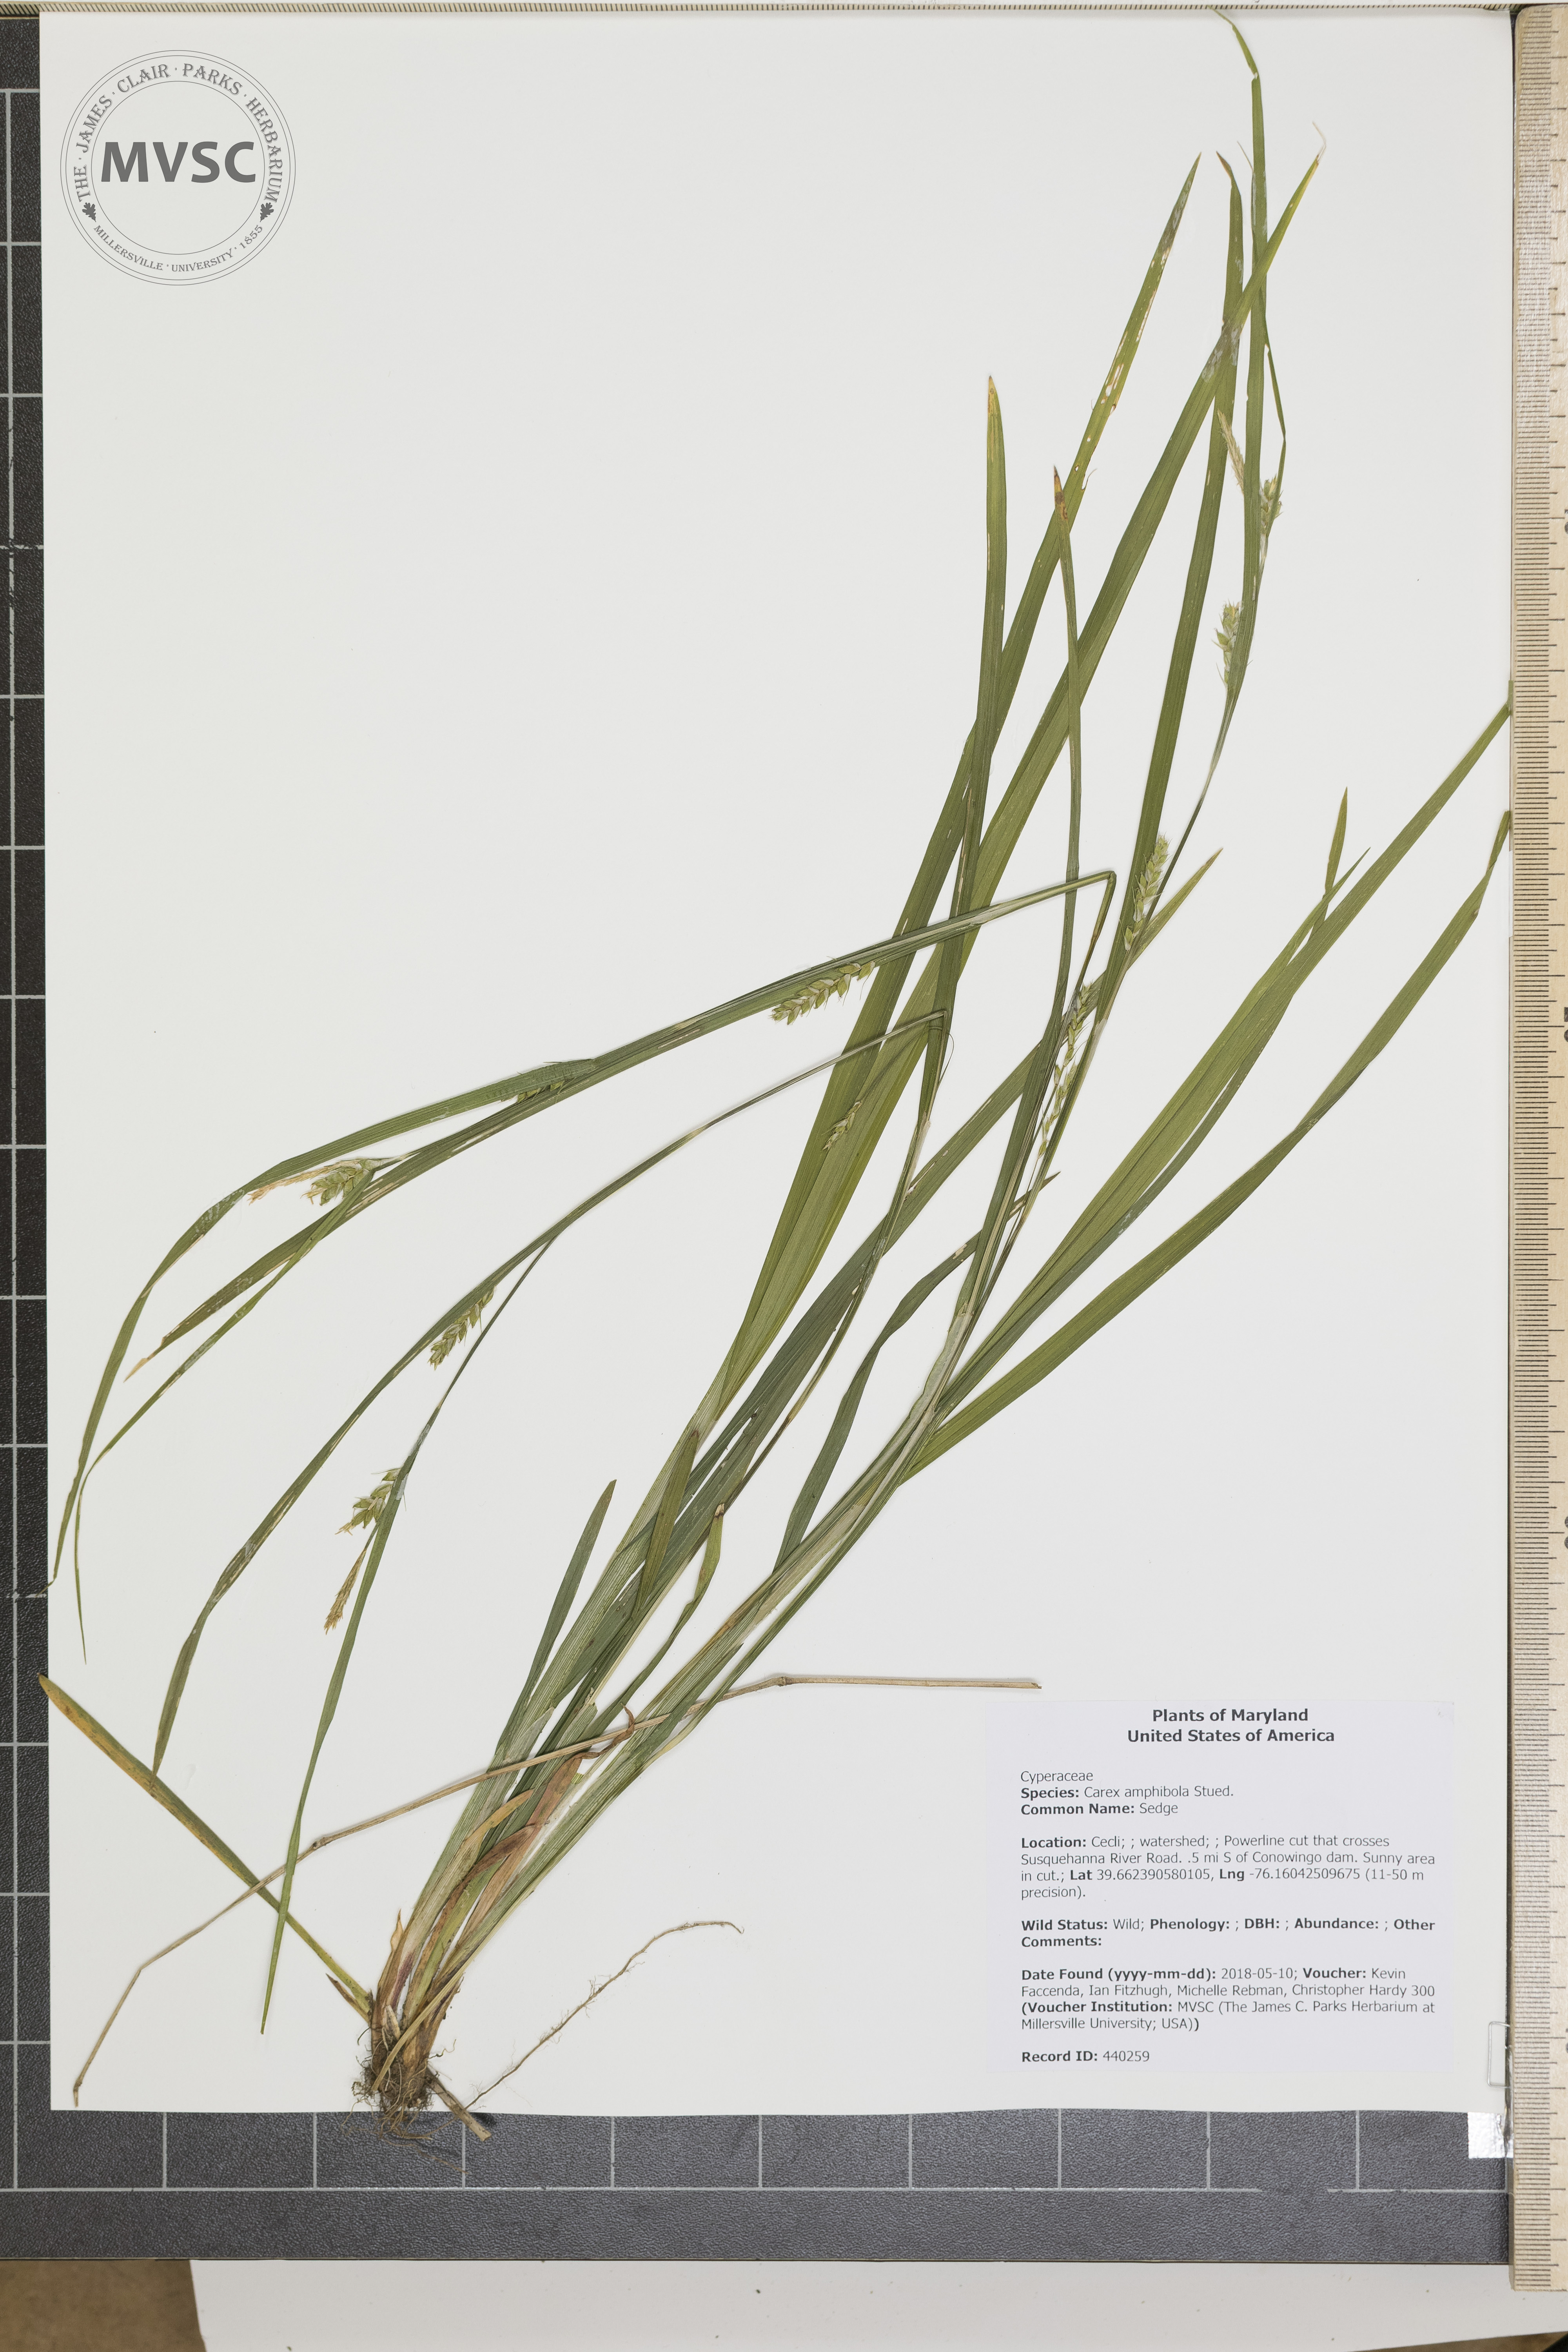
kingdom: Plantae
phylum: Tracheophyta
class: Liliopsida
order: Poales
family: Cyperaceae
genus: Carex
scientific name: Carex amphibola
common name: Sedge
